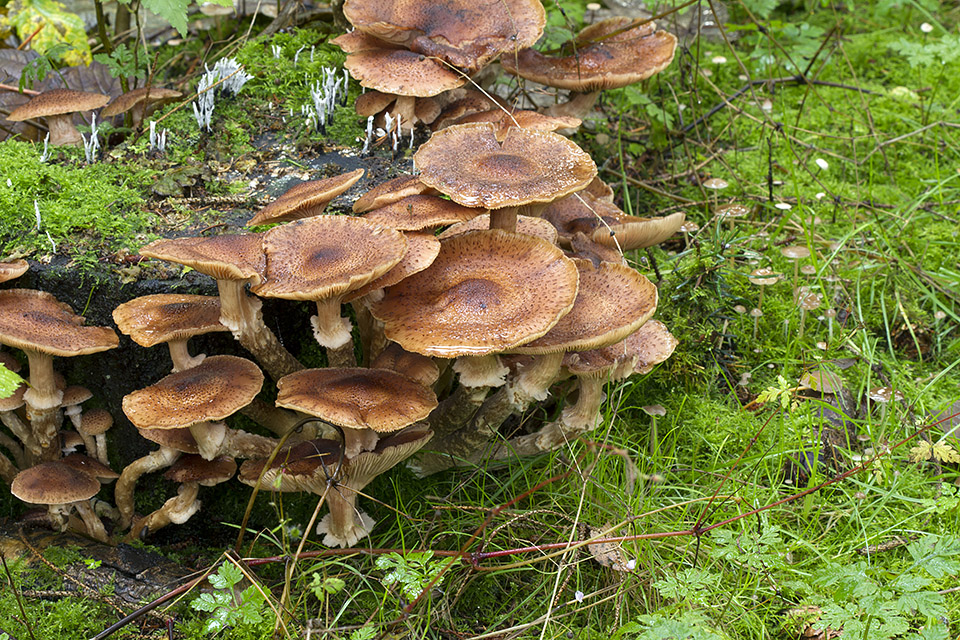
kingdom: Fungi
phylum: Basidiomycota
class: Agaricomycetes
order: Agaricales
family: Physalacriaceae
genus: Armillaria
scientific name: Armillaria ostoyae
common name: mørk honningsvamp
